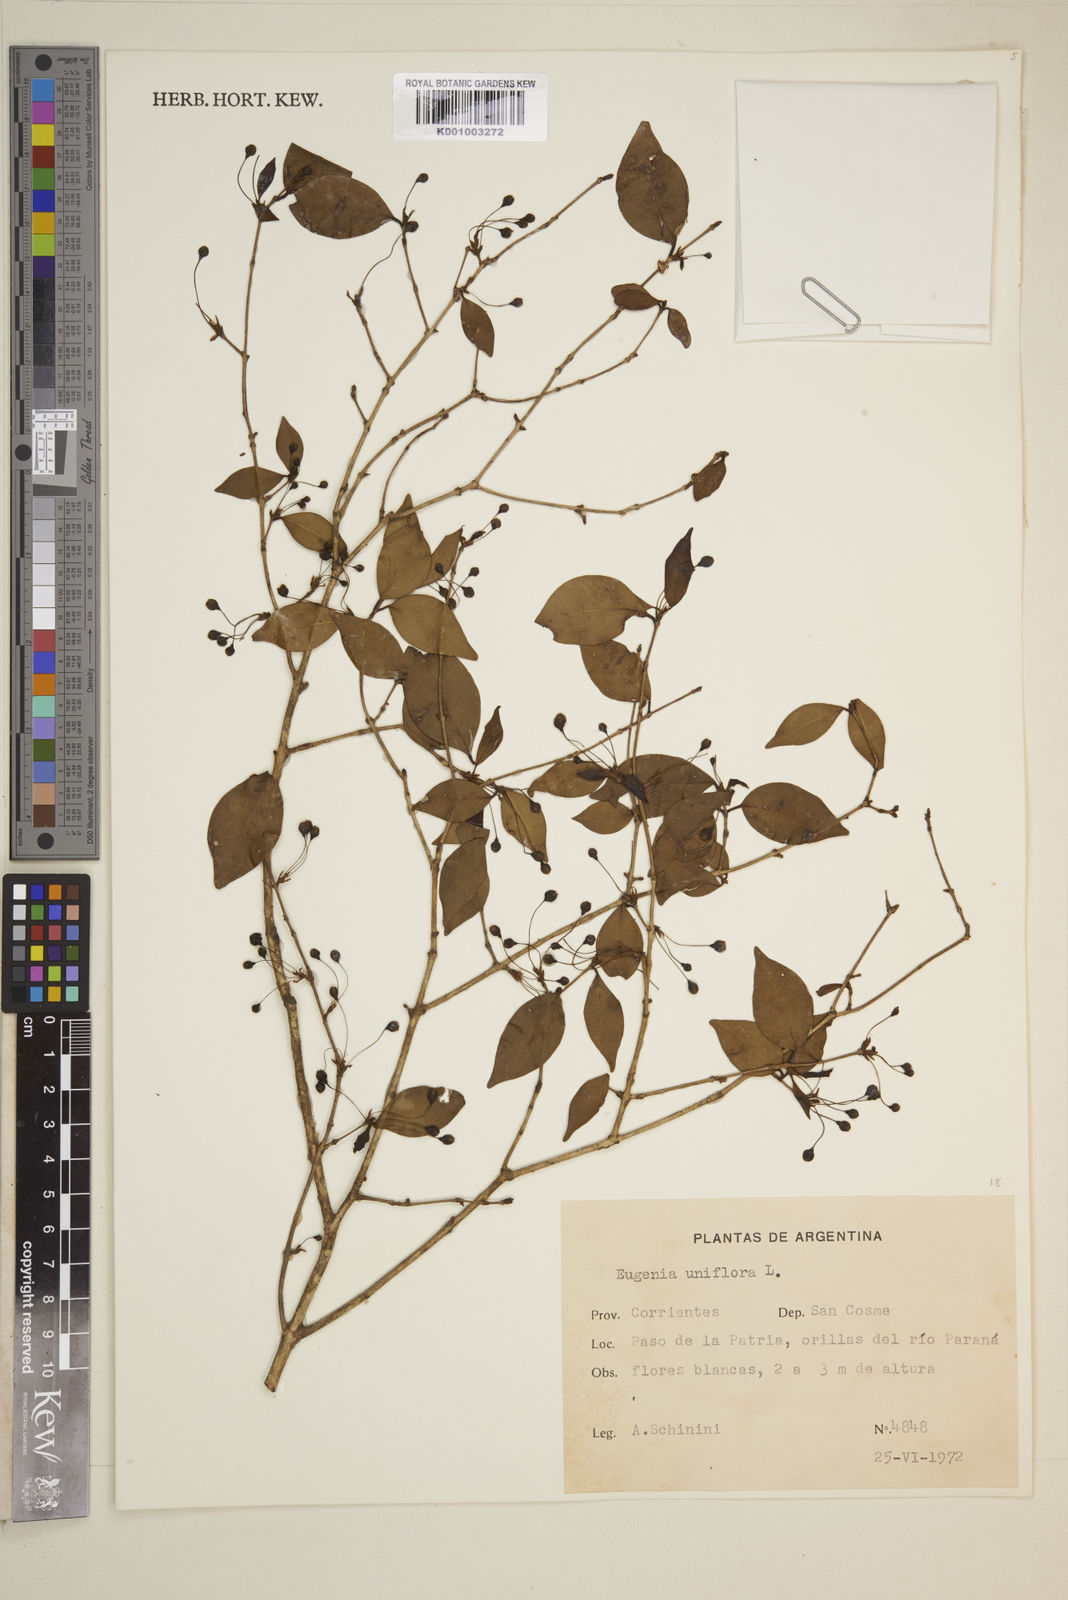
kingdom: Plantae
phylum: Tracheophyta
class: Magnoliopsida
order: Myrtales
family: Myrtaceae
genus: Eugenia
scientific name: Eugenia uniflora
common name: Surinam cherry
